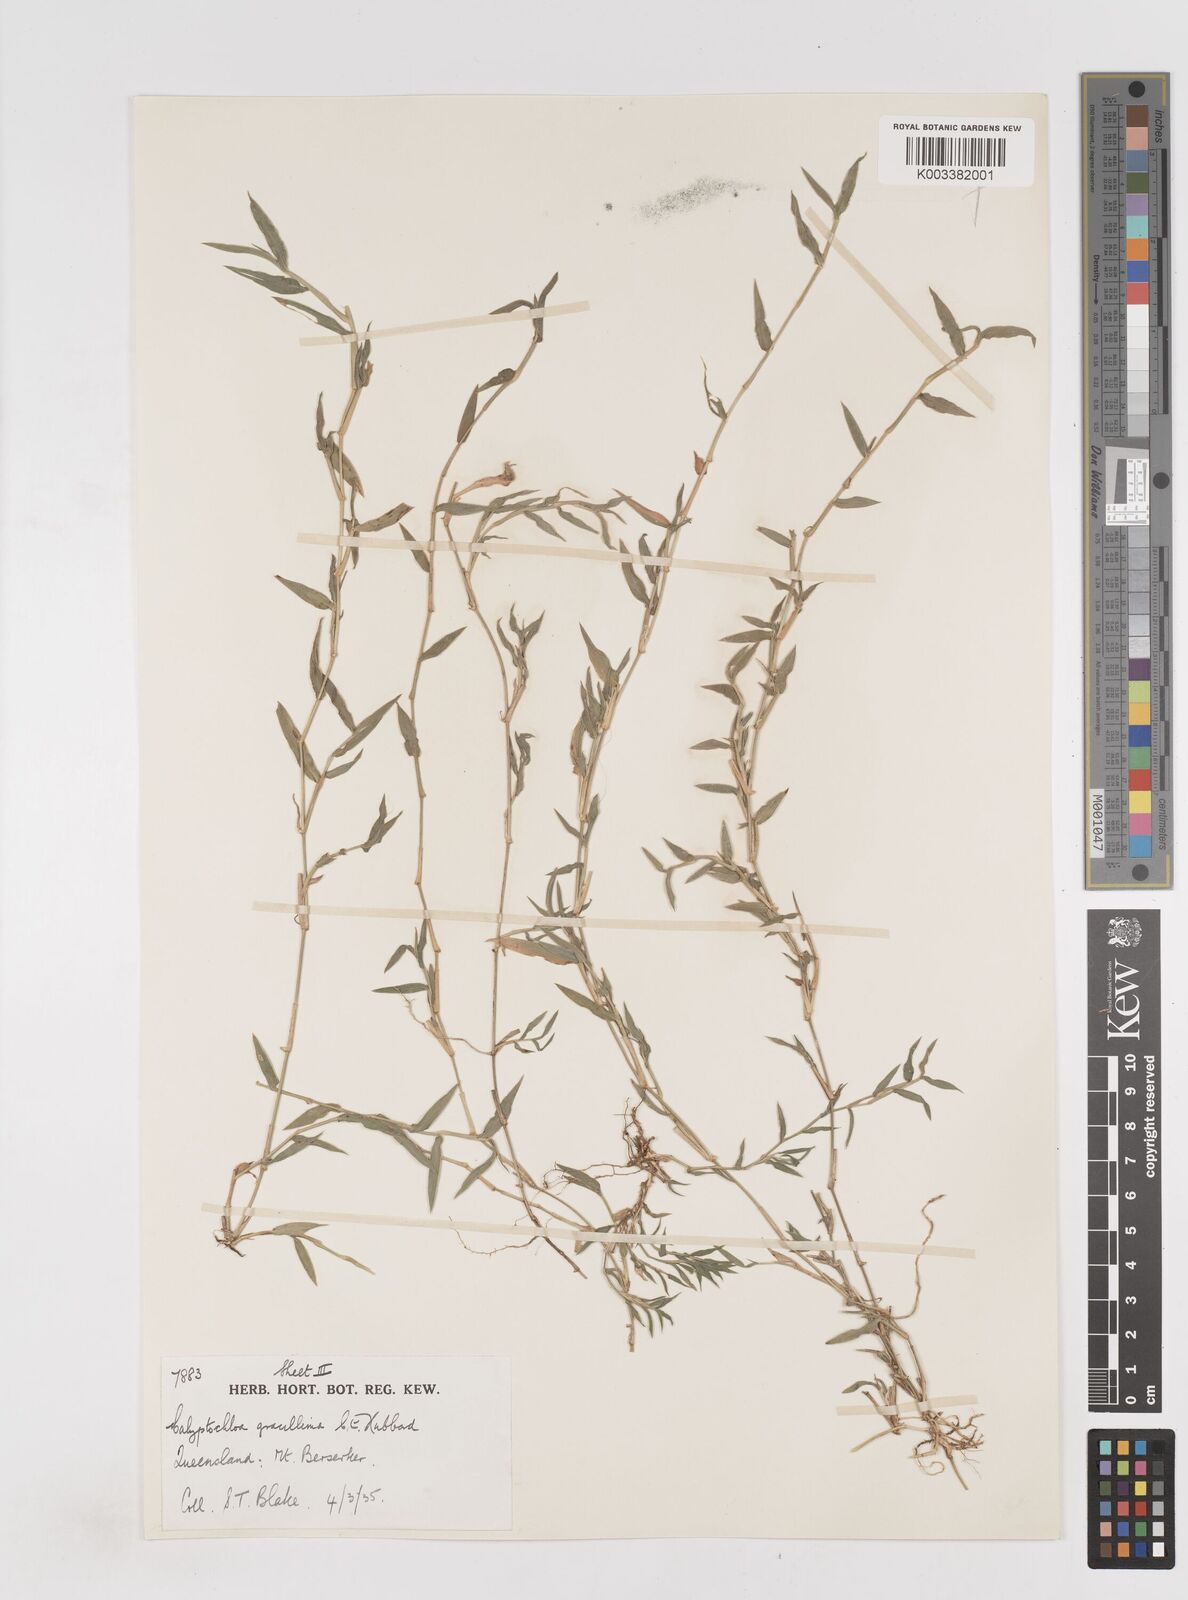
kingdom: Plantae
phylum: Tracheophyta
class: Liliopsida
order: Poales
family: Poaceae
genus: Calyptochloa
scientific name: Calyptochloa gracillima
